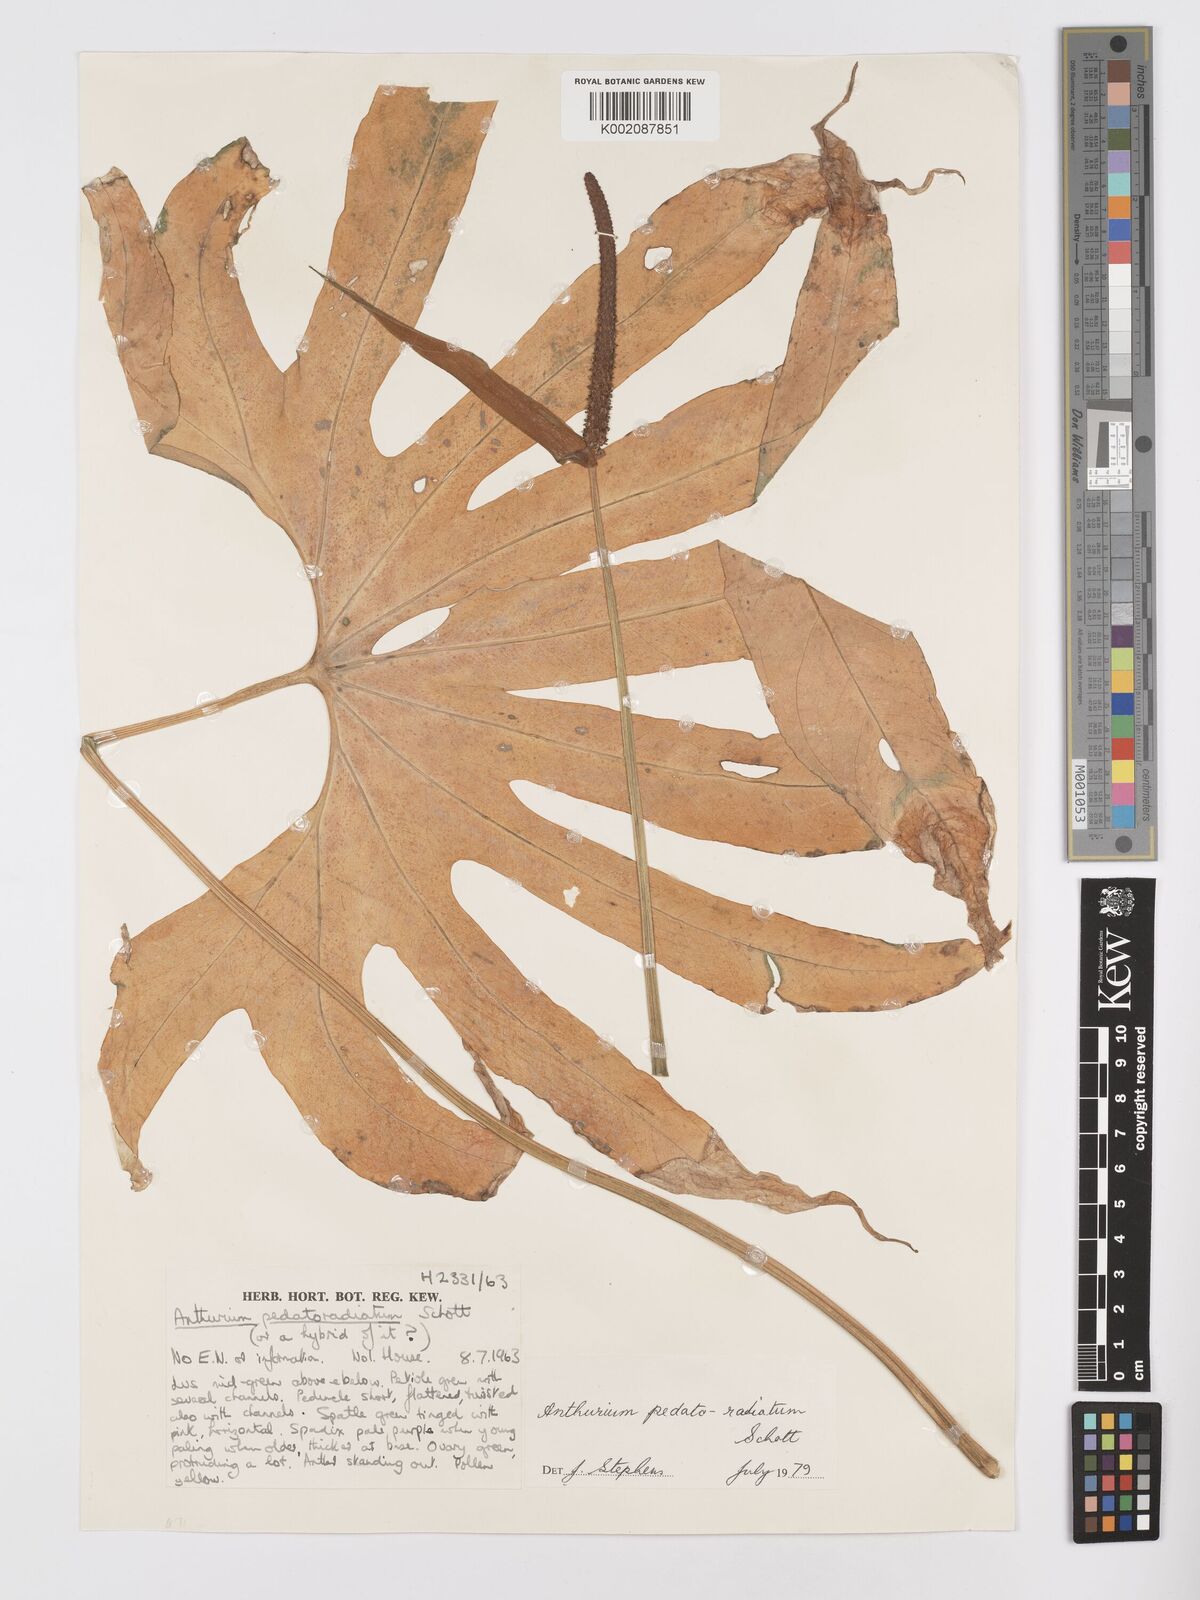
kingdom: Plantae
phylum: Tracheophyta
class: Liliopsida
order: Alismatales
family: Araceae
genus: Anthurium
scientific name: Anthurium pedatoradiatum
